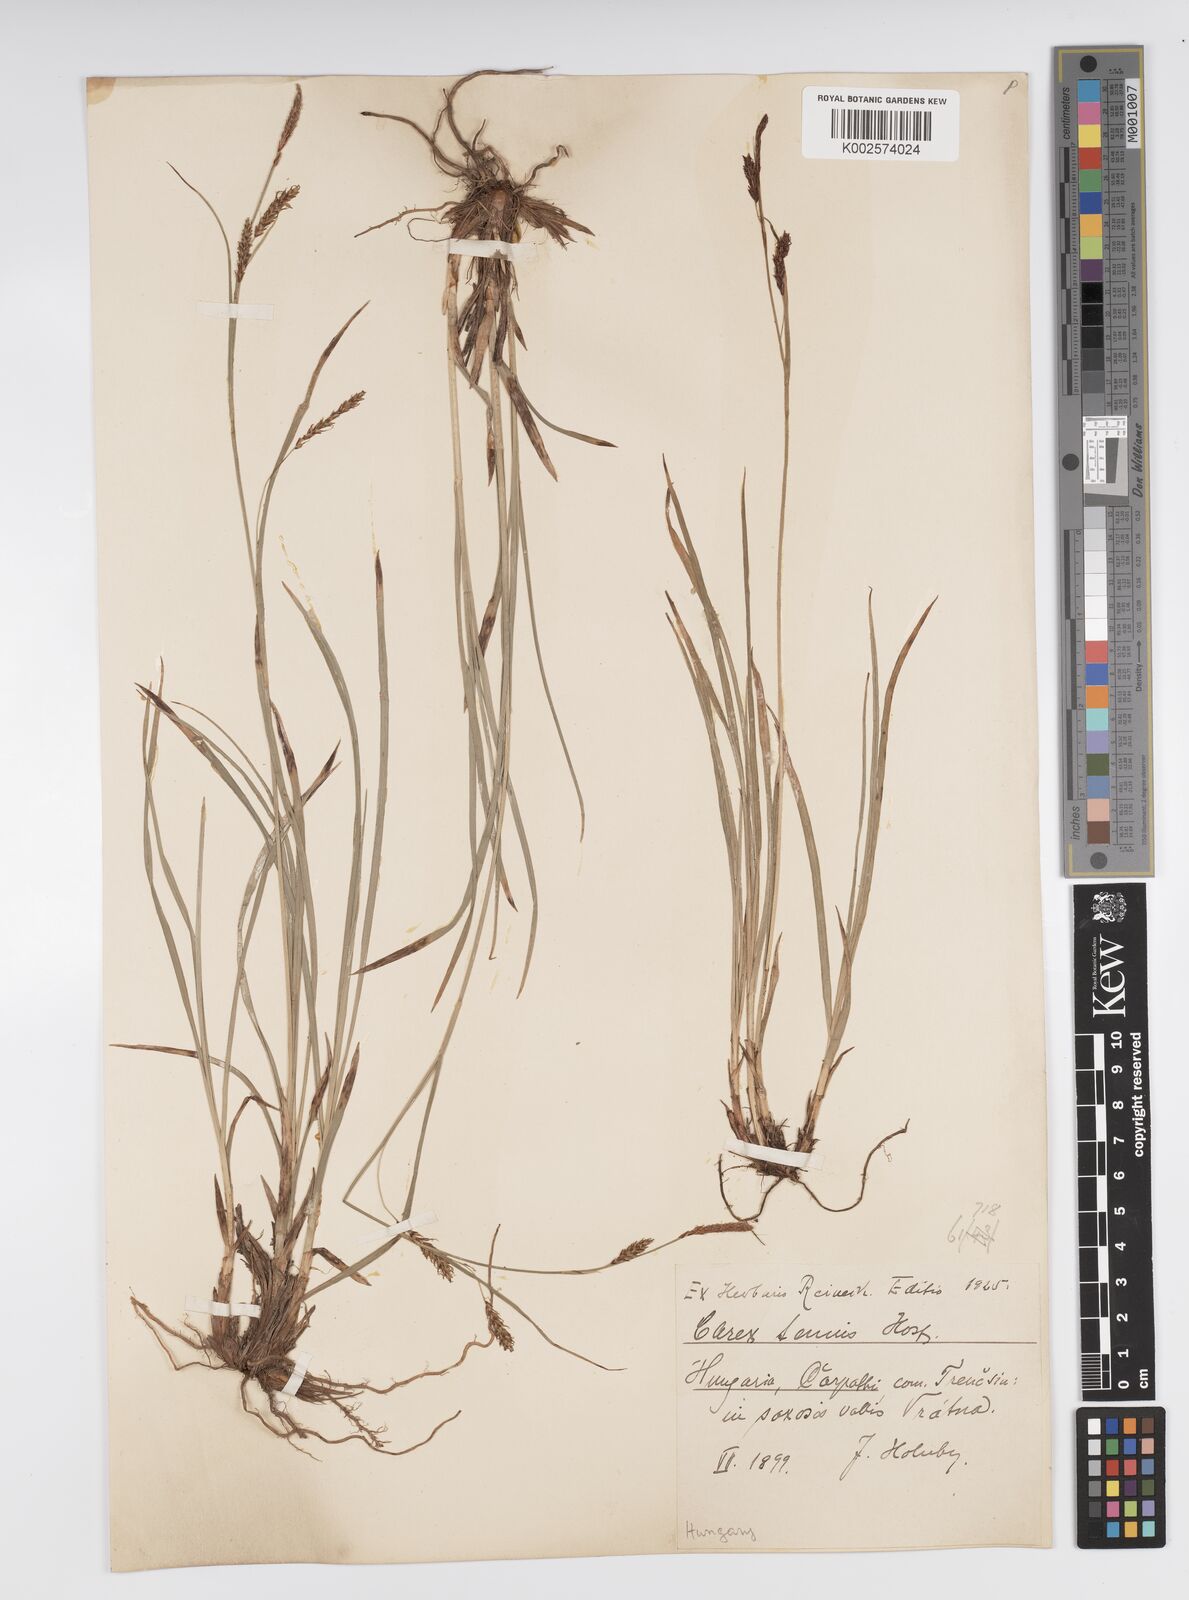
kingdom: Plantae
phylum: Tracheophyta
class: Liliopsida
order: Poales
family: Cyperaceae
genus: Carex
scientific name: Carex brachystachys
